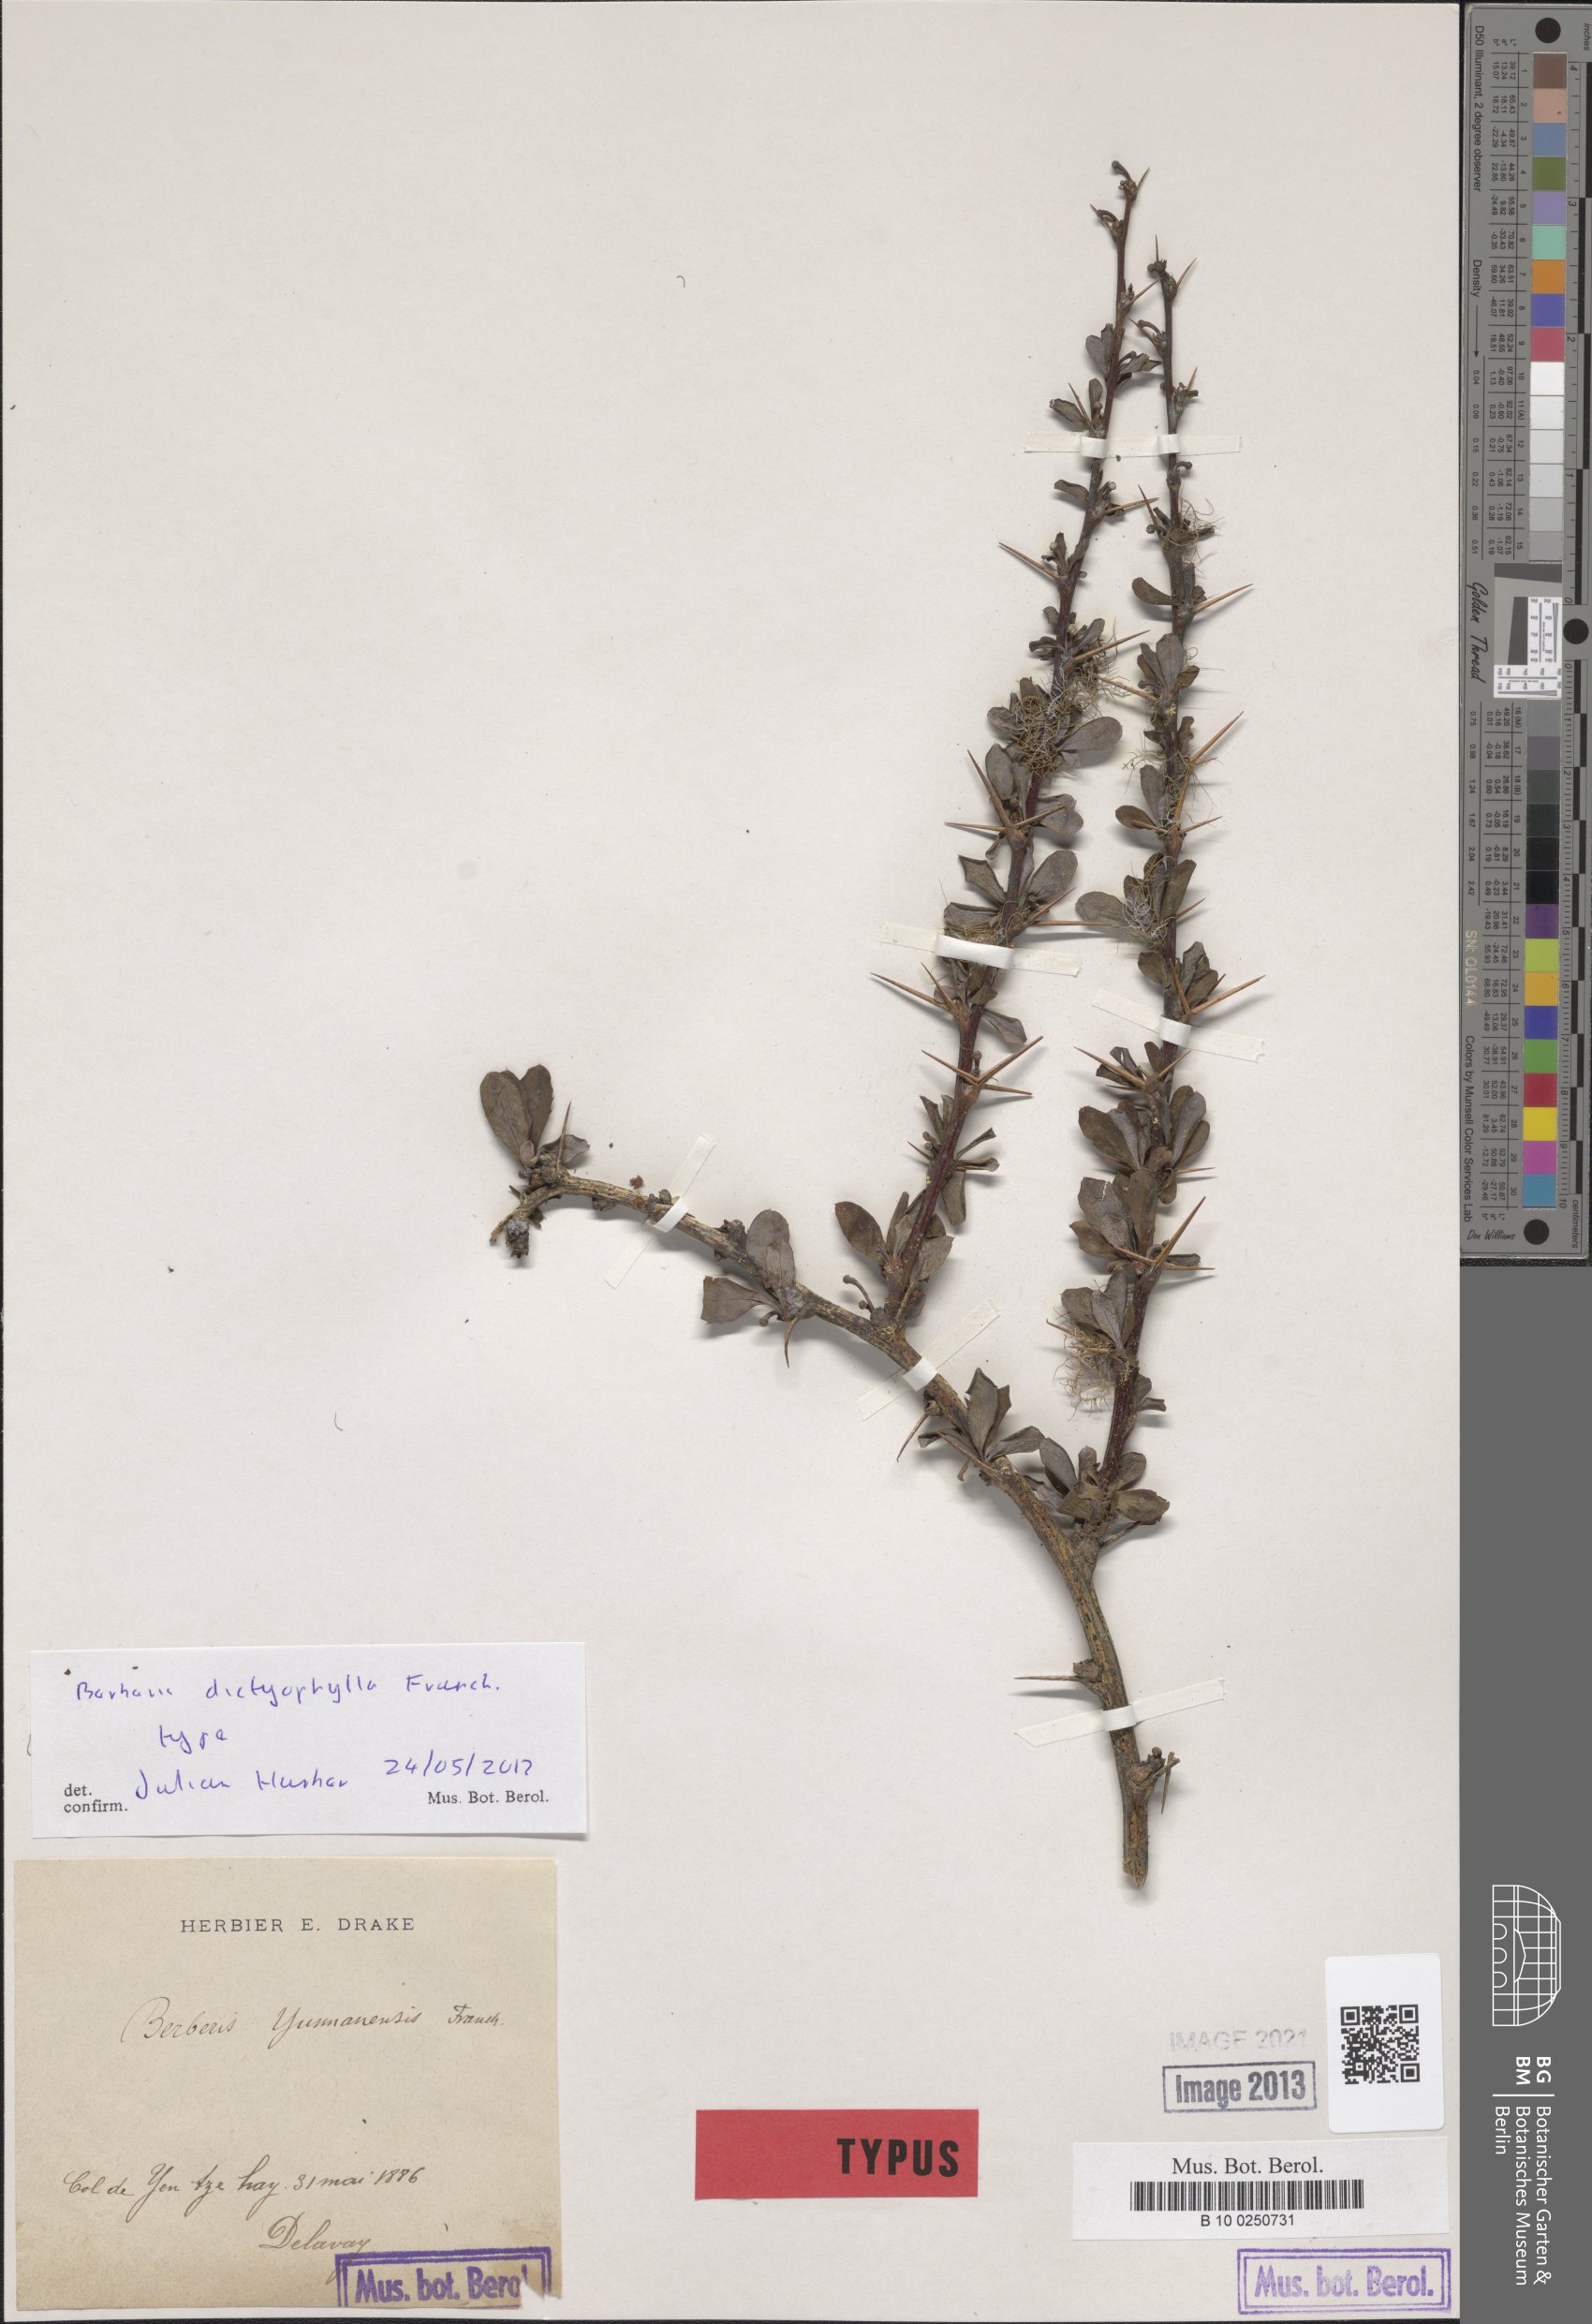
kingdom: Plantae
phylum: Tracheophyta
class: Magnoliopsida
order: Ranunculales
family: Berberidaceae
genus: Berberis
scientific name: Berberis dictyophylla
